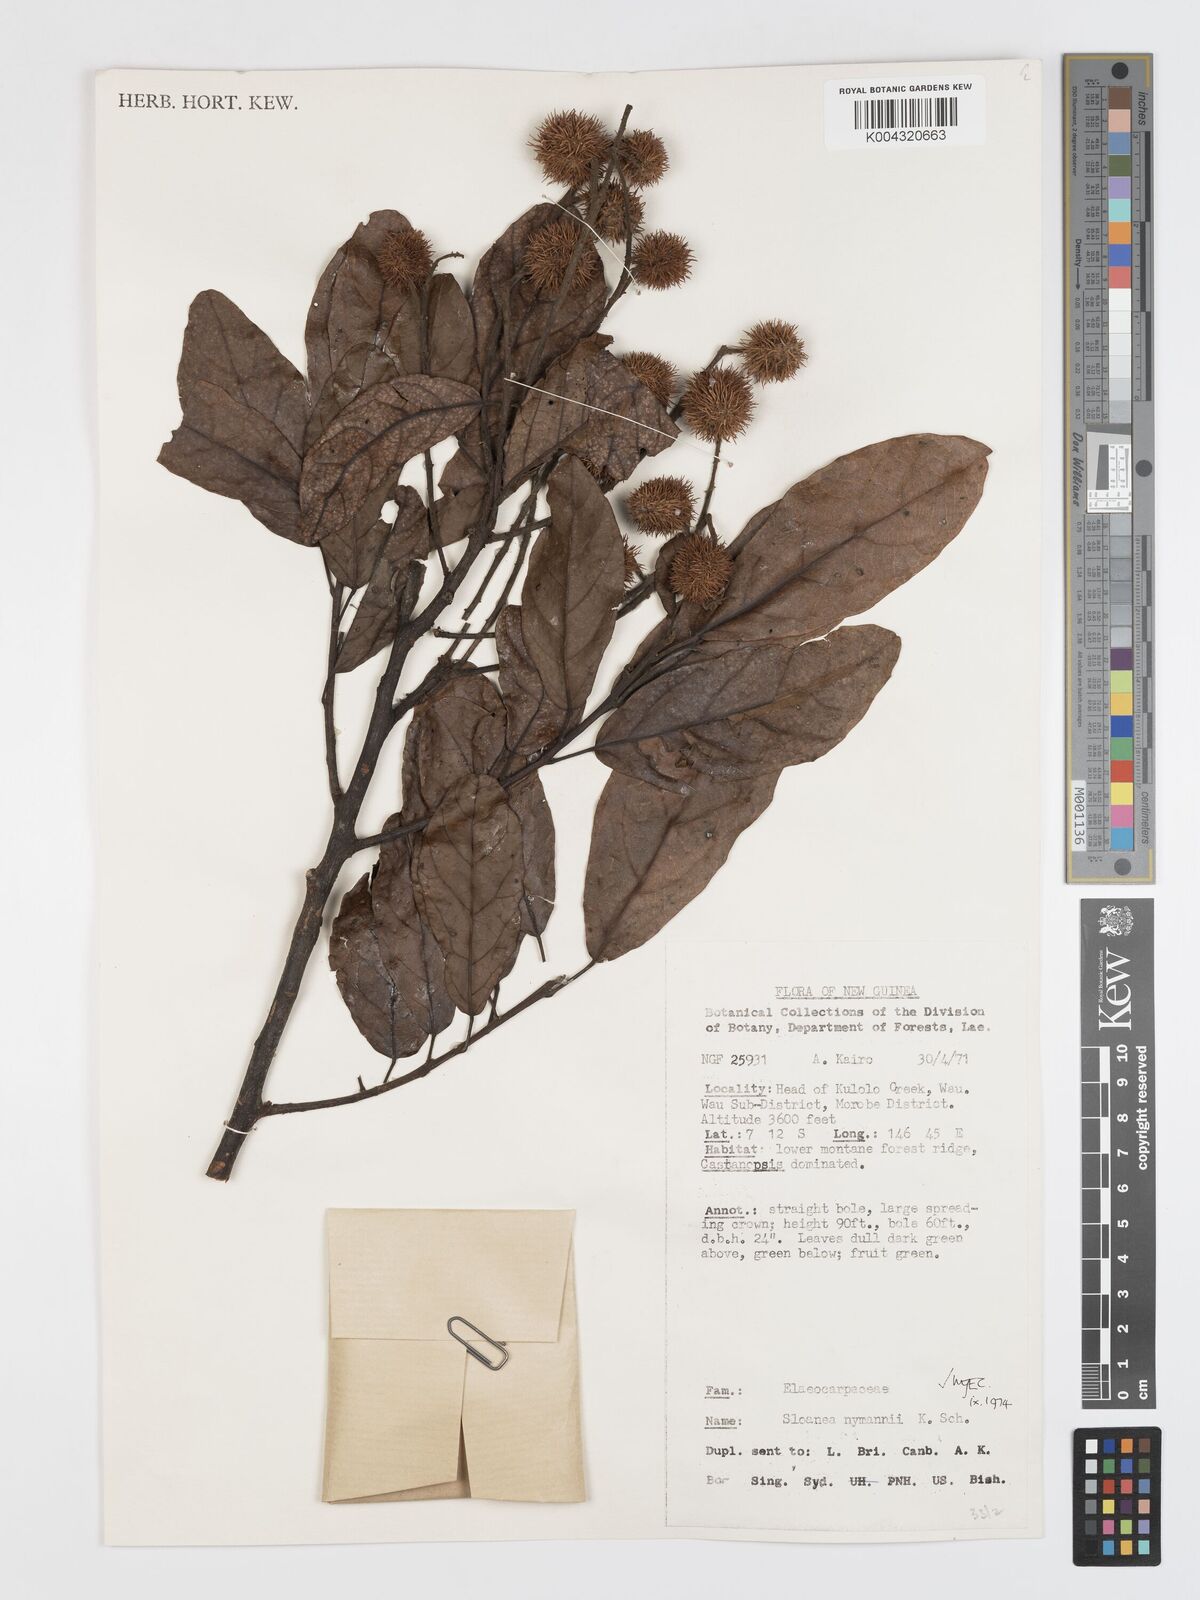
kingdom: Plantae
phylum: Tracheophyta
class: Magnoliopsida
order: Oxalidales
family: Elaeocarpaceae
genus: Sloanea
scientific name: Sloanea nymanii
